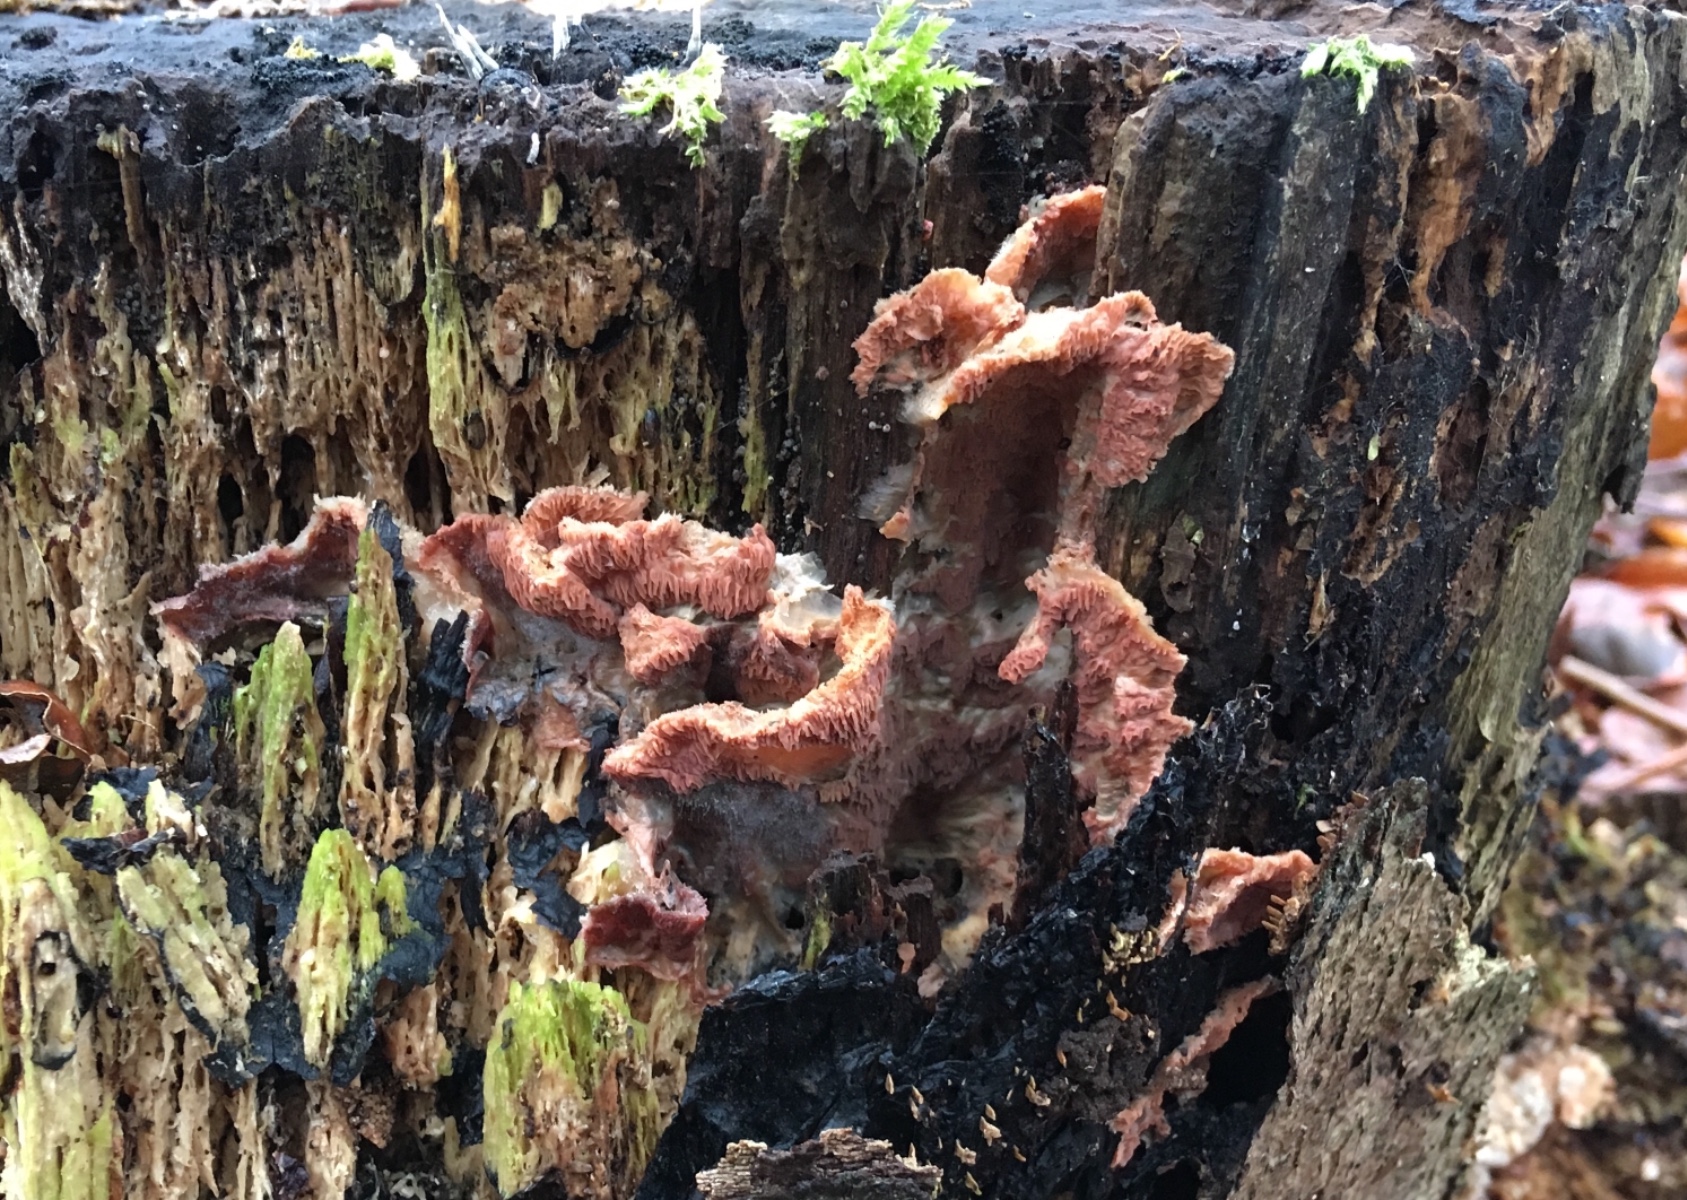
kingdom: Fungi
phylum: Basidiomycota
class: Agaricomycetes
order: Polyporales
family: Meruliaceae
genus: Phlebia
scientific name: Phlebia tremellosa
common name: bævrende åresvamp
